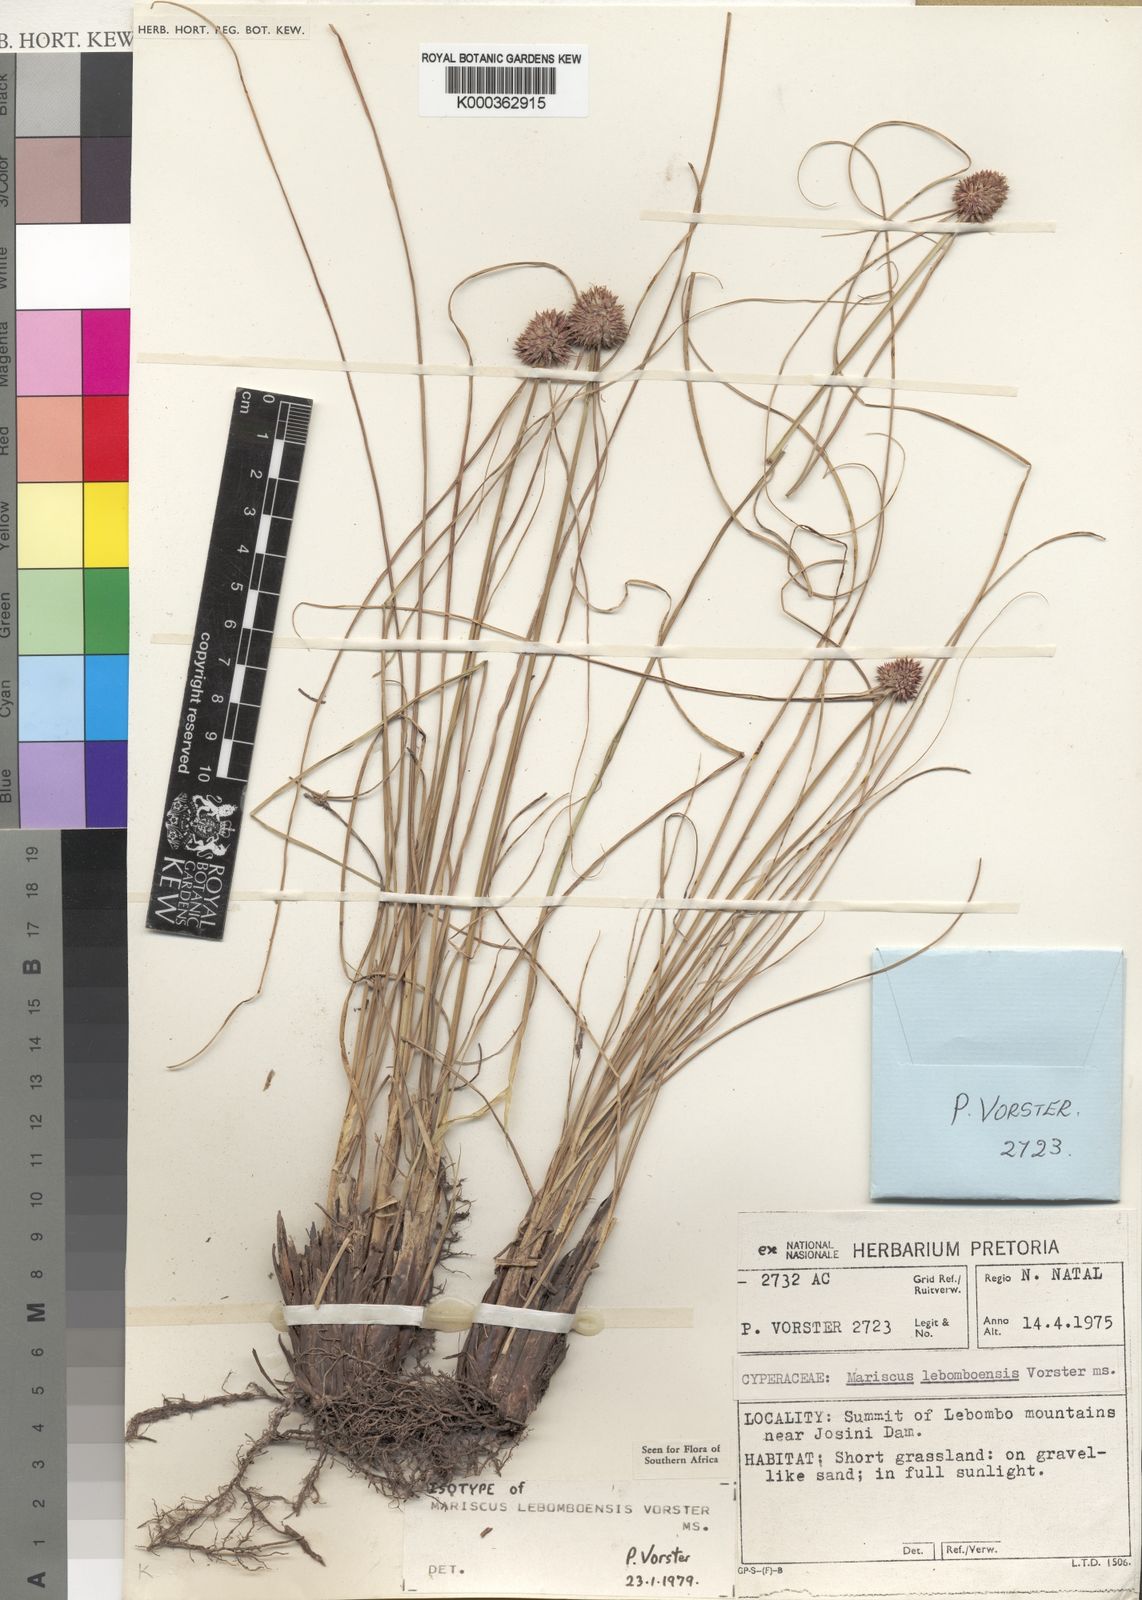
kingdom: Plantae
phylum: Tracheophyta
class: Liliopsida
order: Poales
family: Cyperaceae
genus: Cyperus
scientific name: Cyperus
